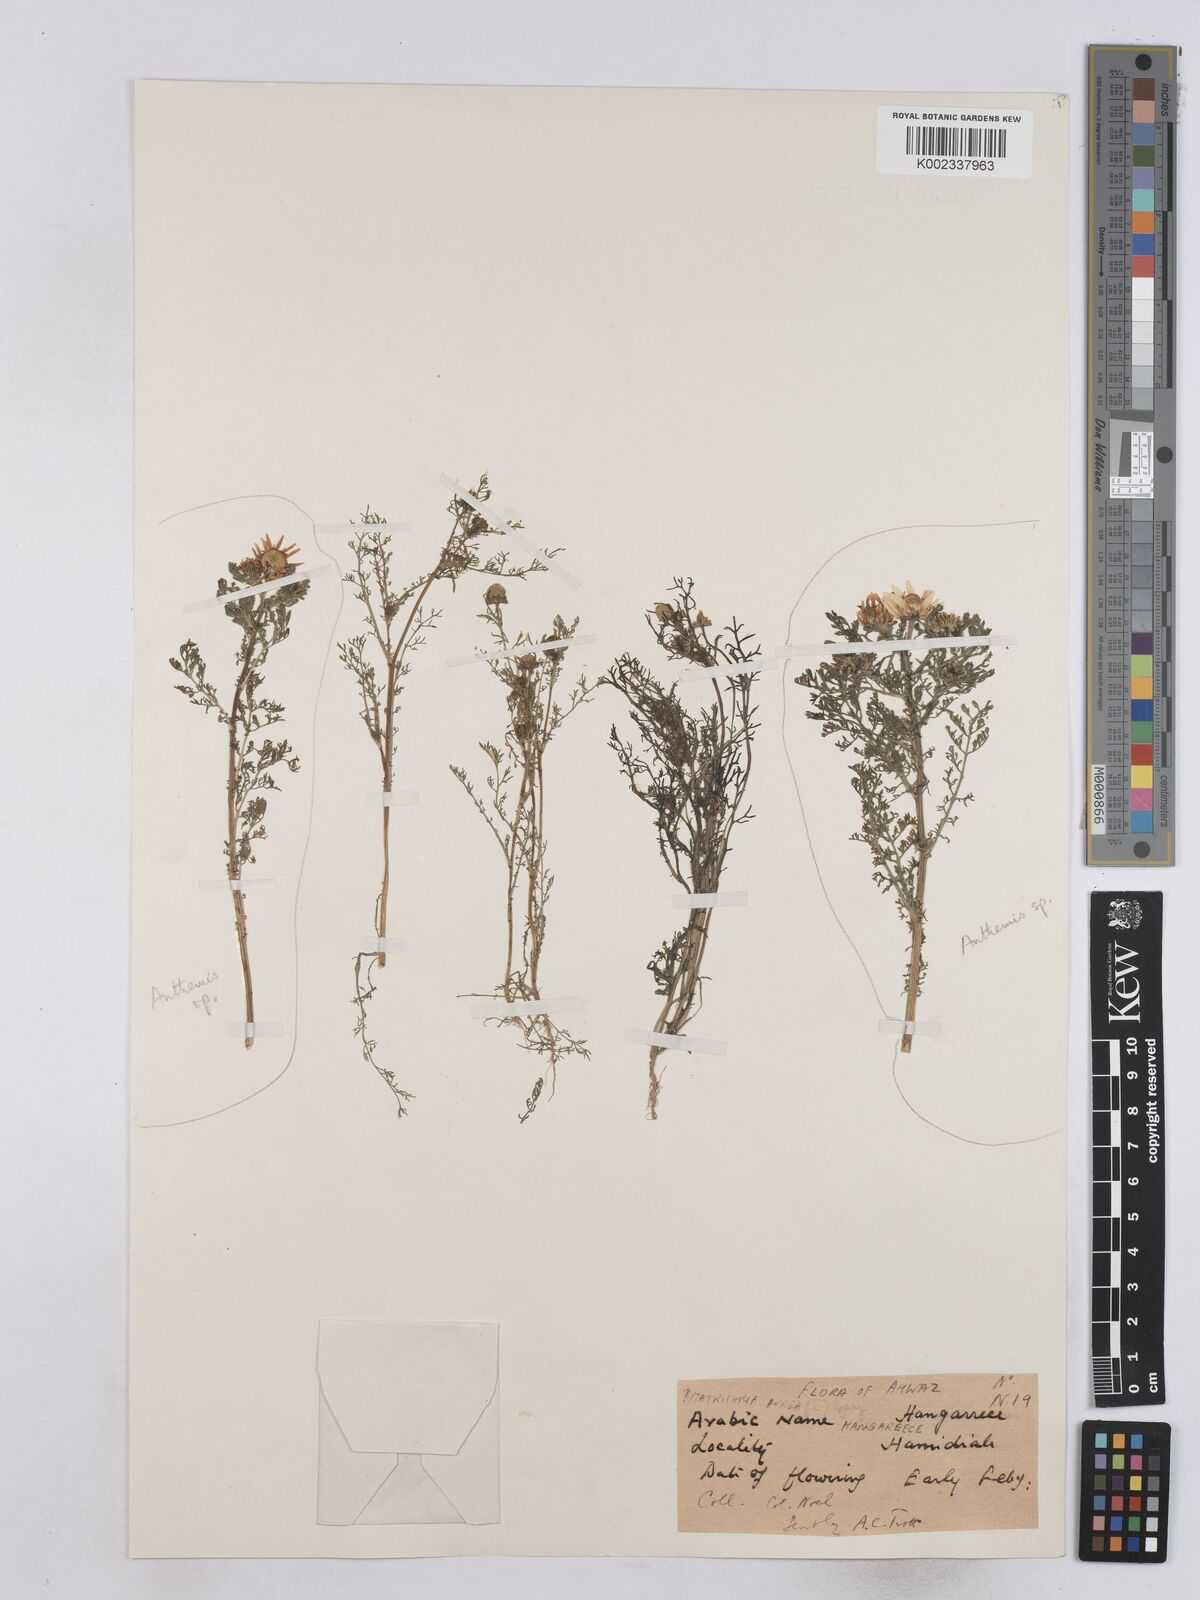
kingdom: Plantae
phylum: Tracheophyta
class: Magnoliopsida
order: Asterales
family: Asteraceae
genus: Matricaria
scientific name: Matricaria aurea
